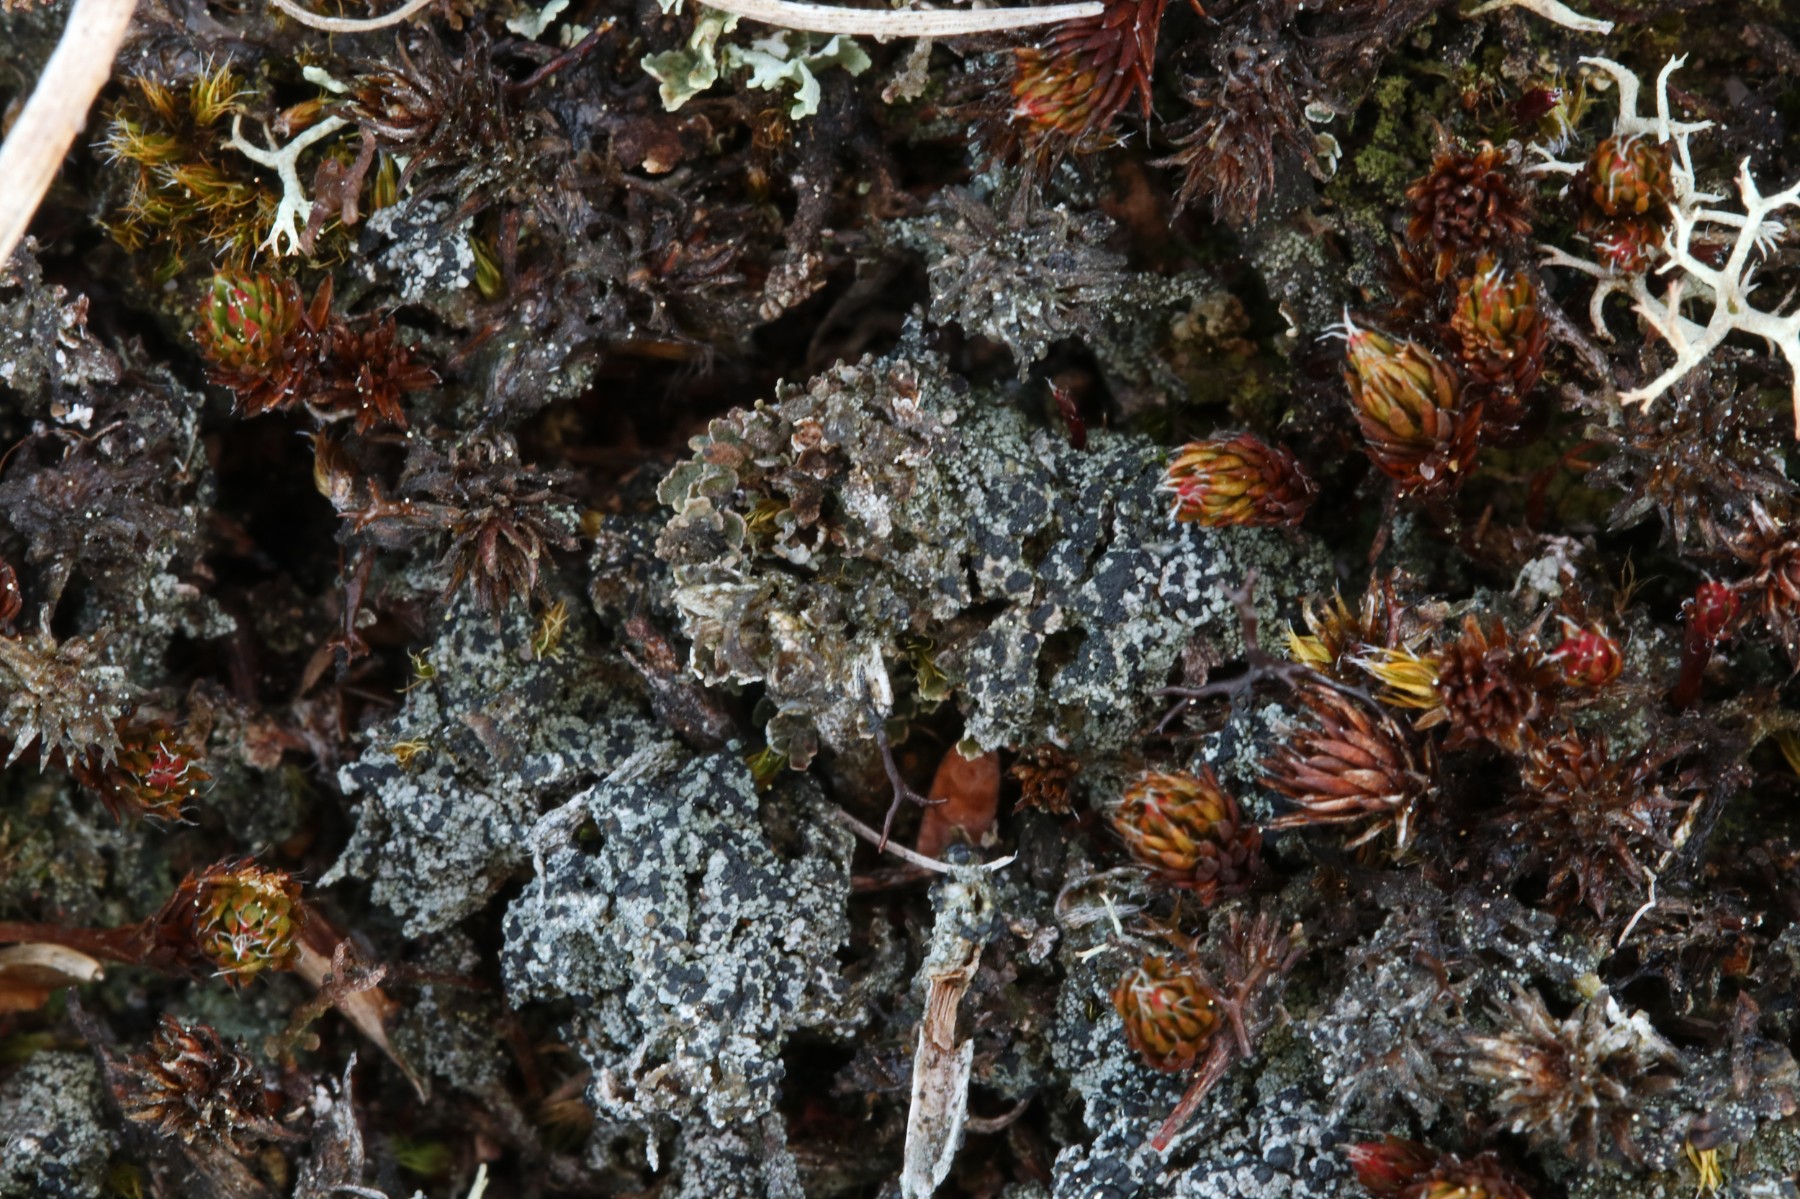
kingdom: Fungi
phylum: Ascomycota
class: Lecanoromycetes
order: Lecanorales
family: Byssolomataceae
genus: Micarea
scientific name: Micarea lignaria
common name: tørve-knaplav
